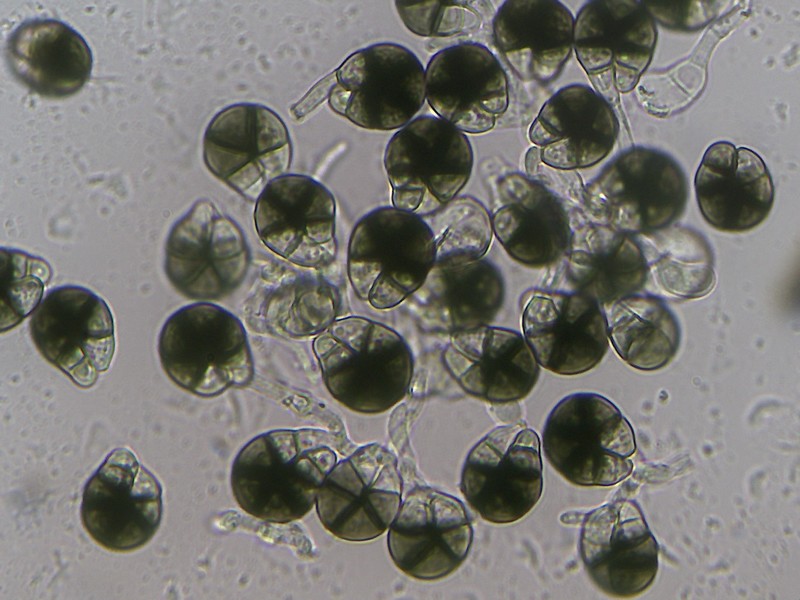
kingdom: Fungi
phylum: Ascomycota
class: Dothideomycetes
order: Tubeufiales
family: Tubeufiaceae
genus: Helicoma
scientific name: Helicoma monosporum
